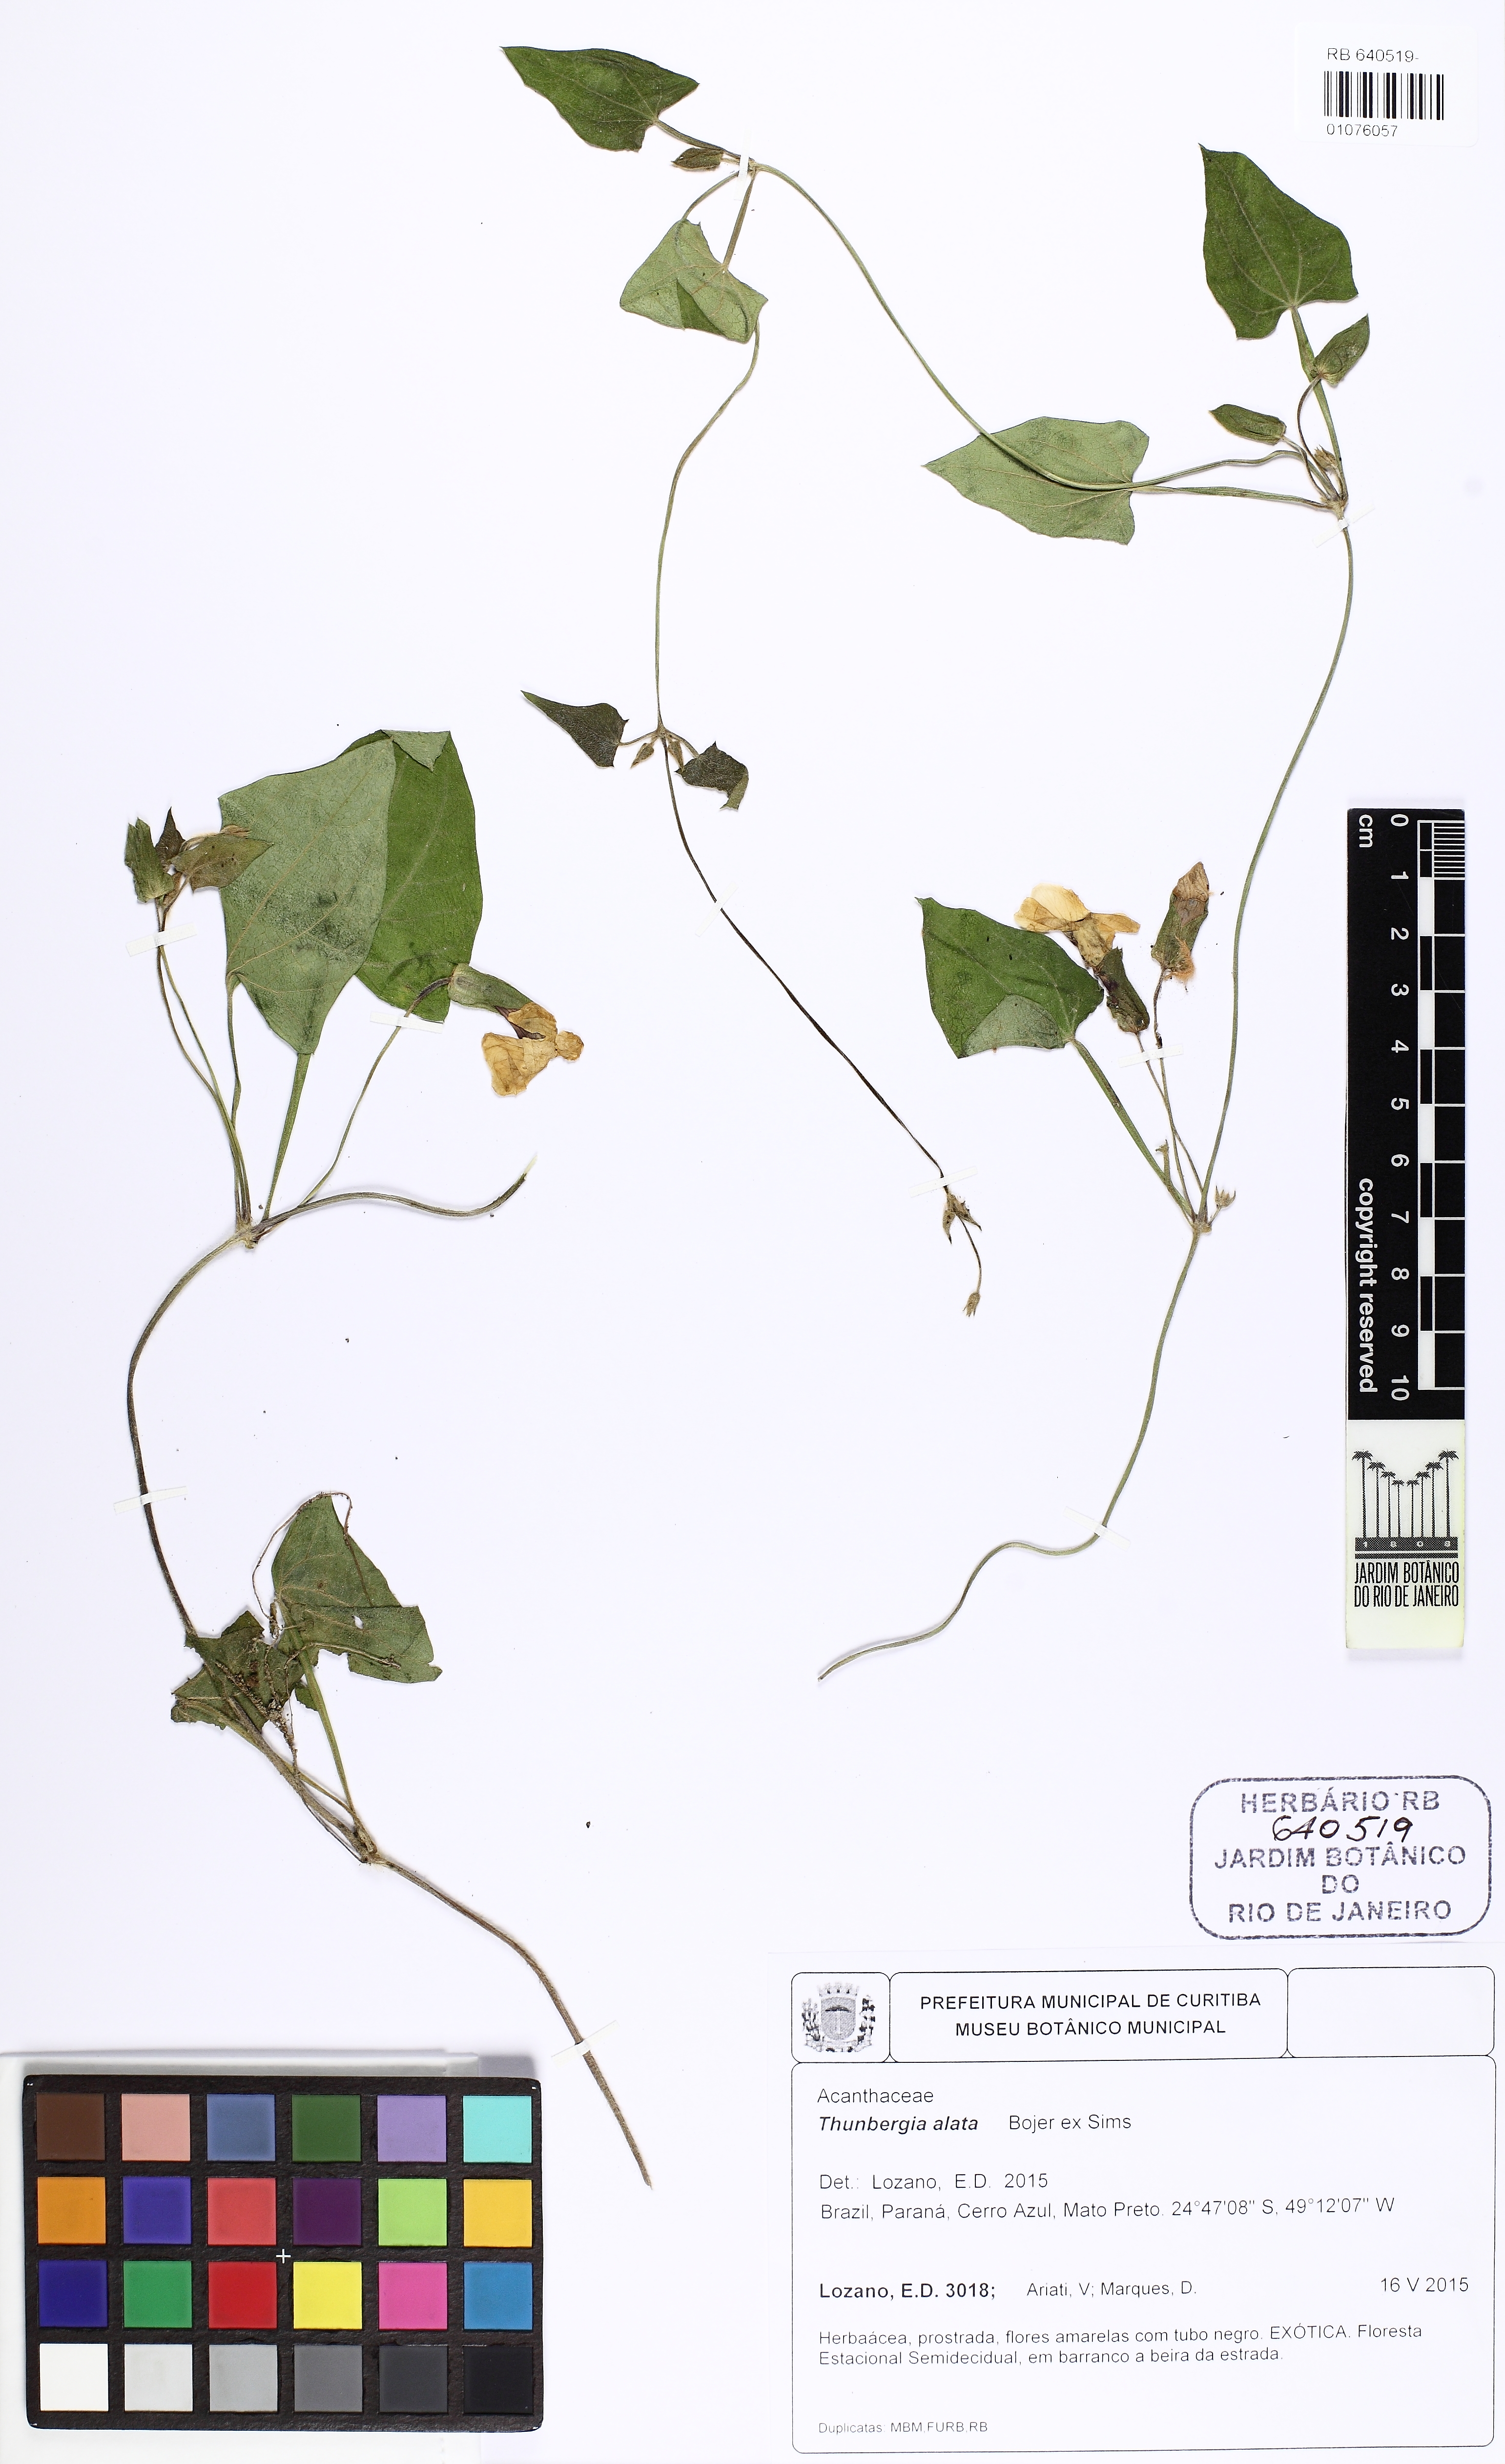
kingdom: Plantae
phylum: Tracheophyta
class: Magnoliopsida
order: Lamiales
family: Acanthaceae
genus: Thunbergia
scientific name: Thunbergia alata
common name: Blackeyed susan vine
